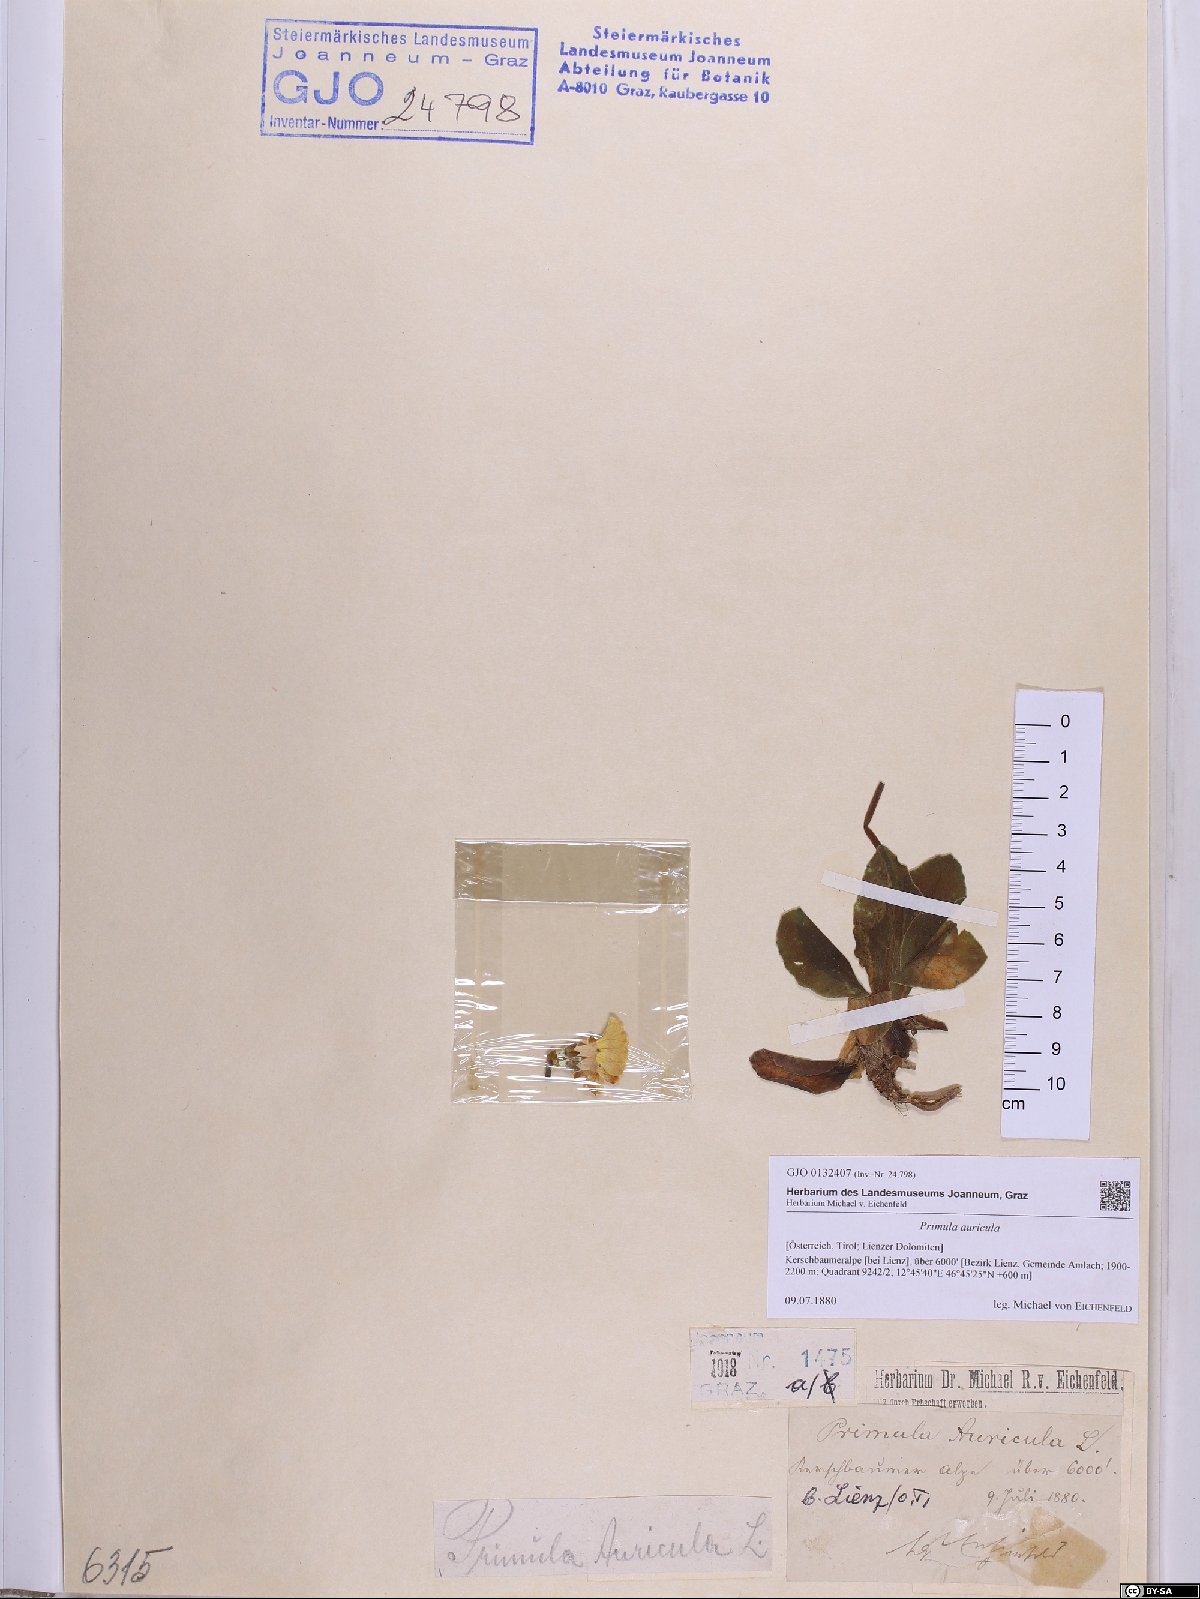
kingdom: Plantae
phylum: Tracheophyta
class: Magnoliopsida
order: Ericales
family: Primulaceae
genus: Primula
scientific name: Primula auricula
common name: Auricula
